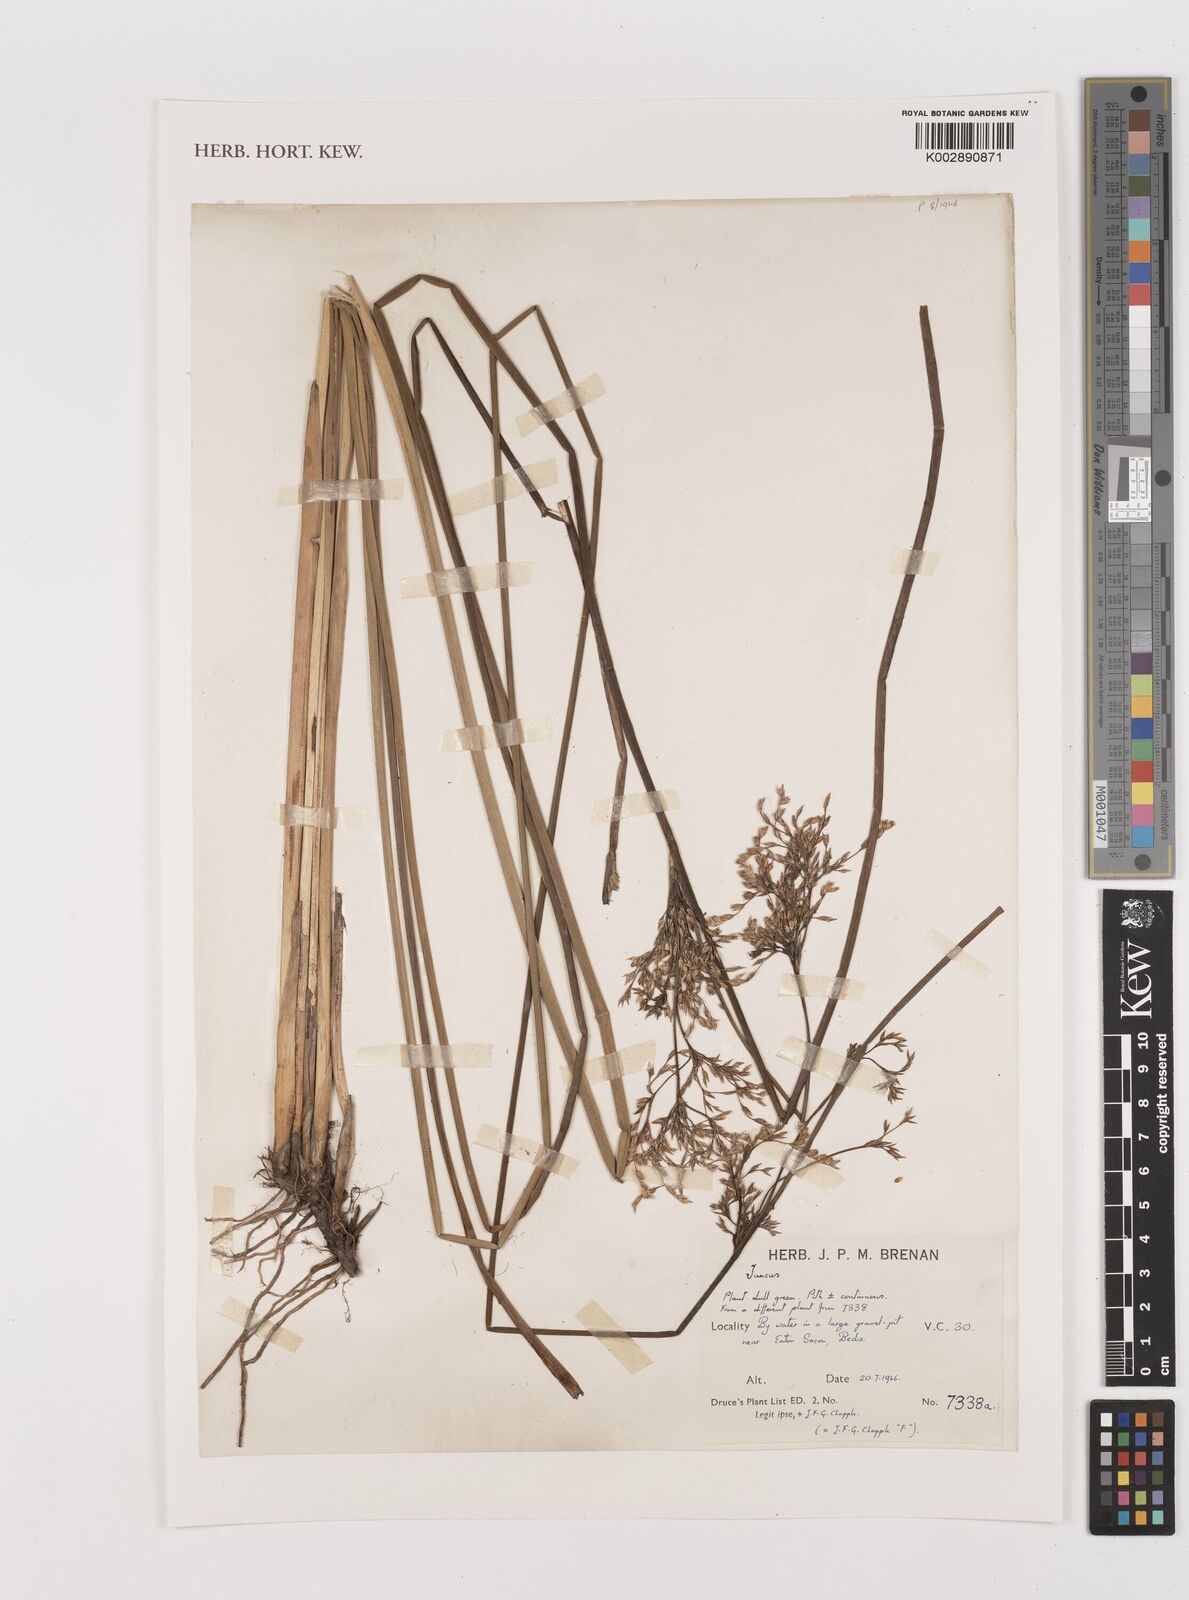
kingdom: Plantae
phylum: Tracheophyta
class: Liliopsida
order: Poales
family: Juncaceae
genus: Juncus
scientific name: Juncus
